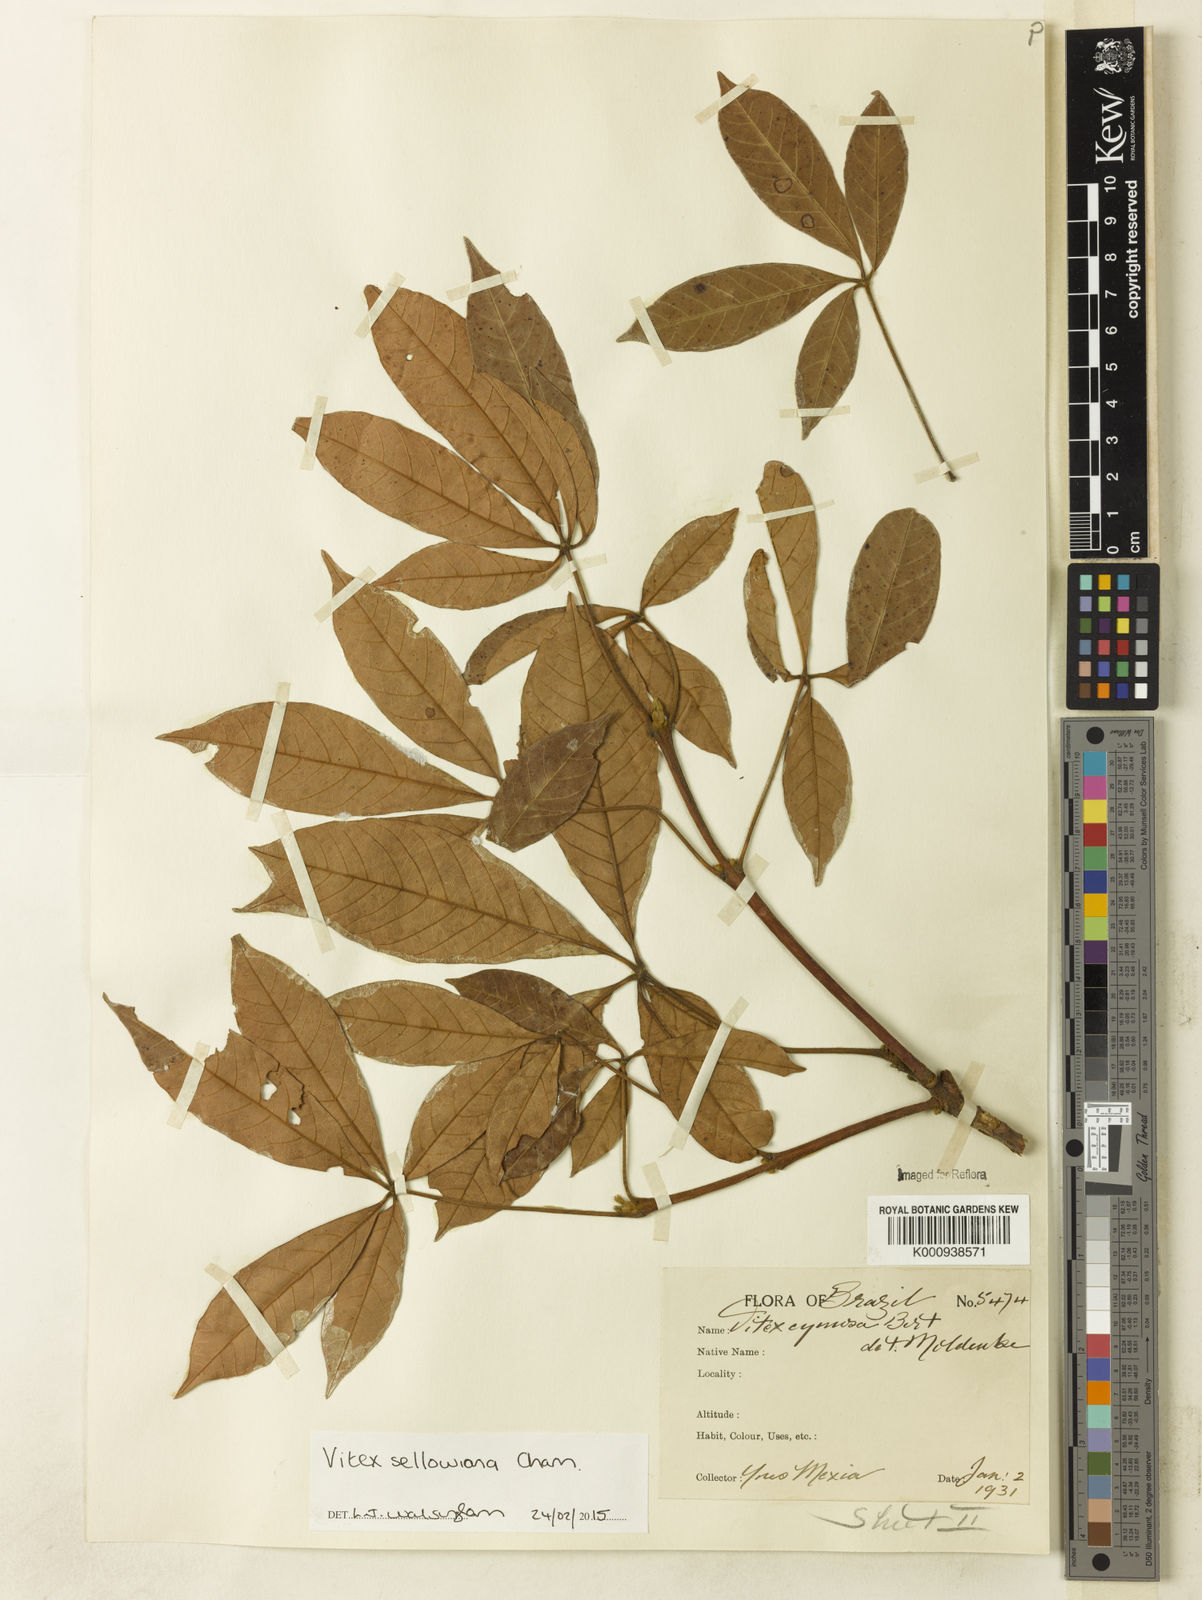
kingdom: Plantae
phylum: Tracheophyta
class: Magnoliopsida
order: Lamiales
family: Lamiaceae
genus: Vitex
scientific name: Vitex sellowiana
